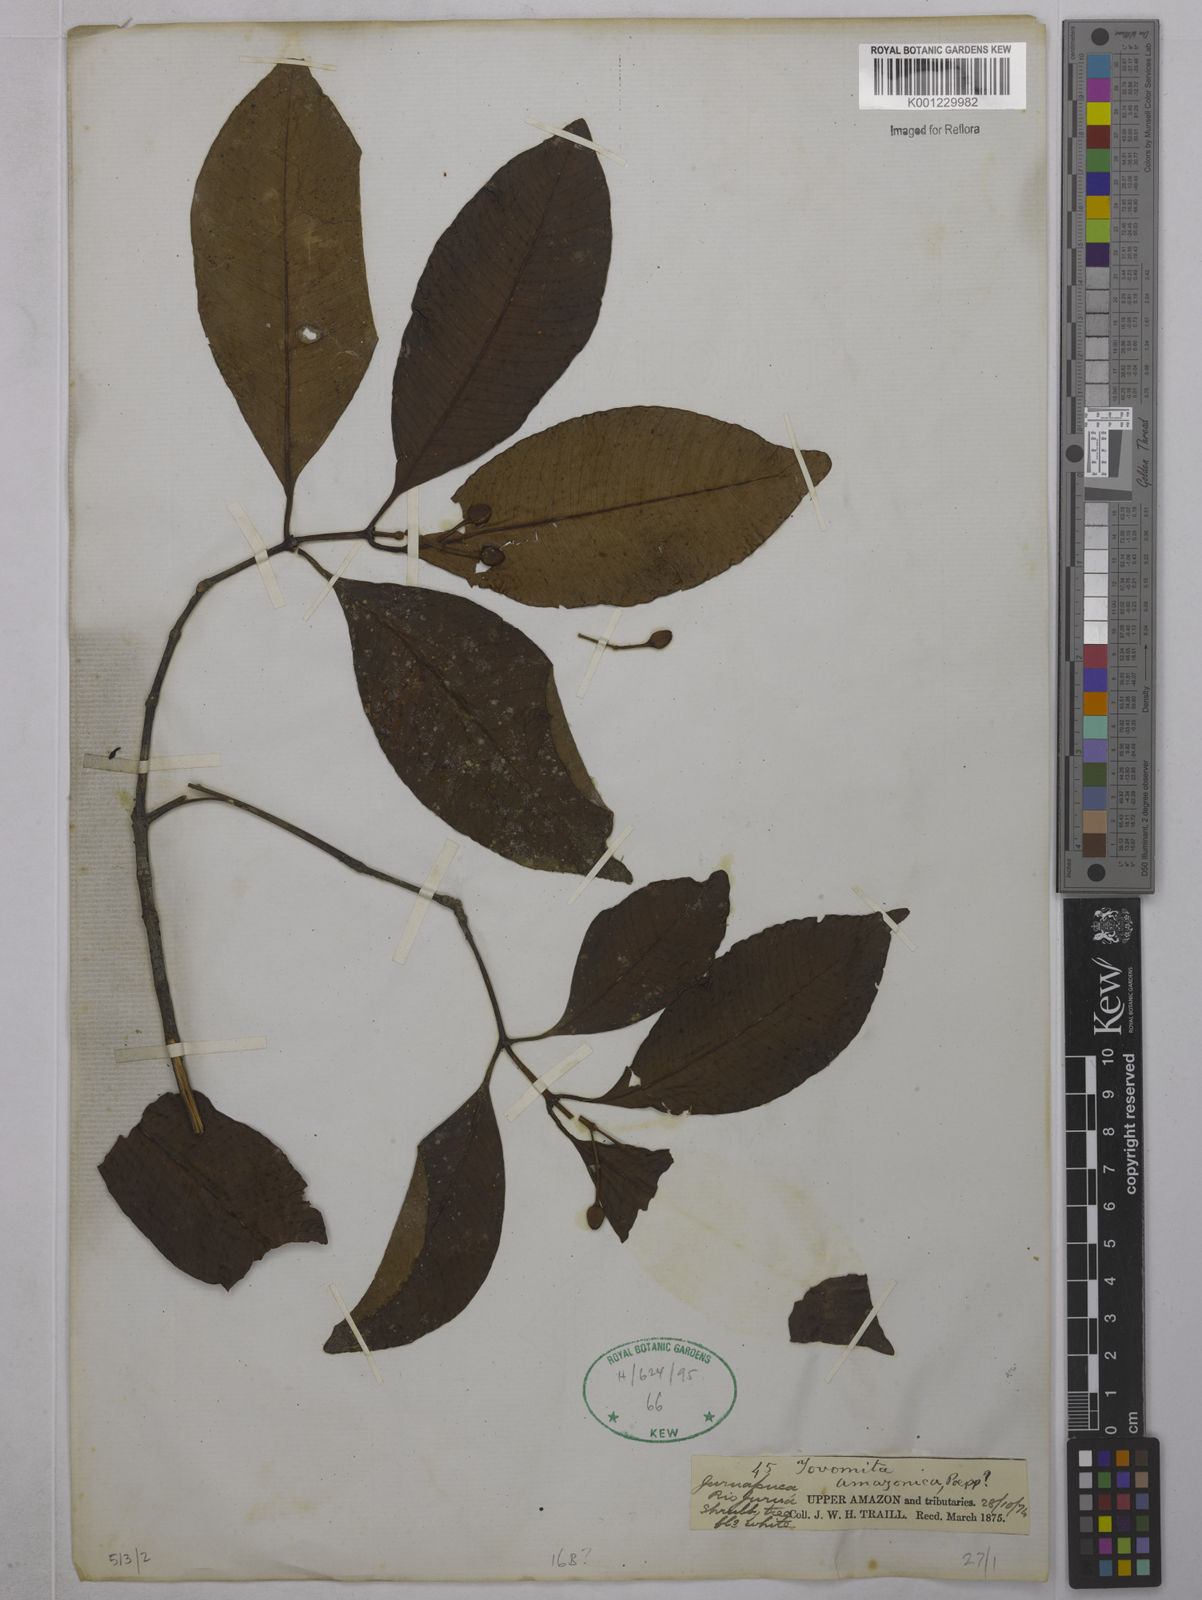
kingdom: Plantae
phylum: Tracheophyta
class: Magnoliopsida
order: Malpighiales
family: Clusiaceae
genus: Tovomita
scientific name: Tovomita amazonica
